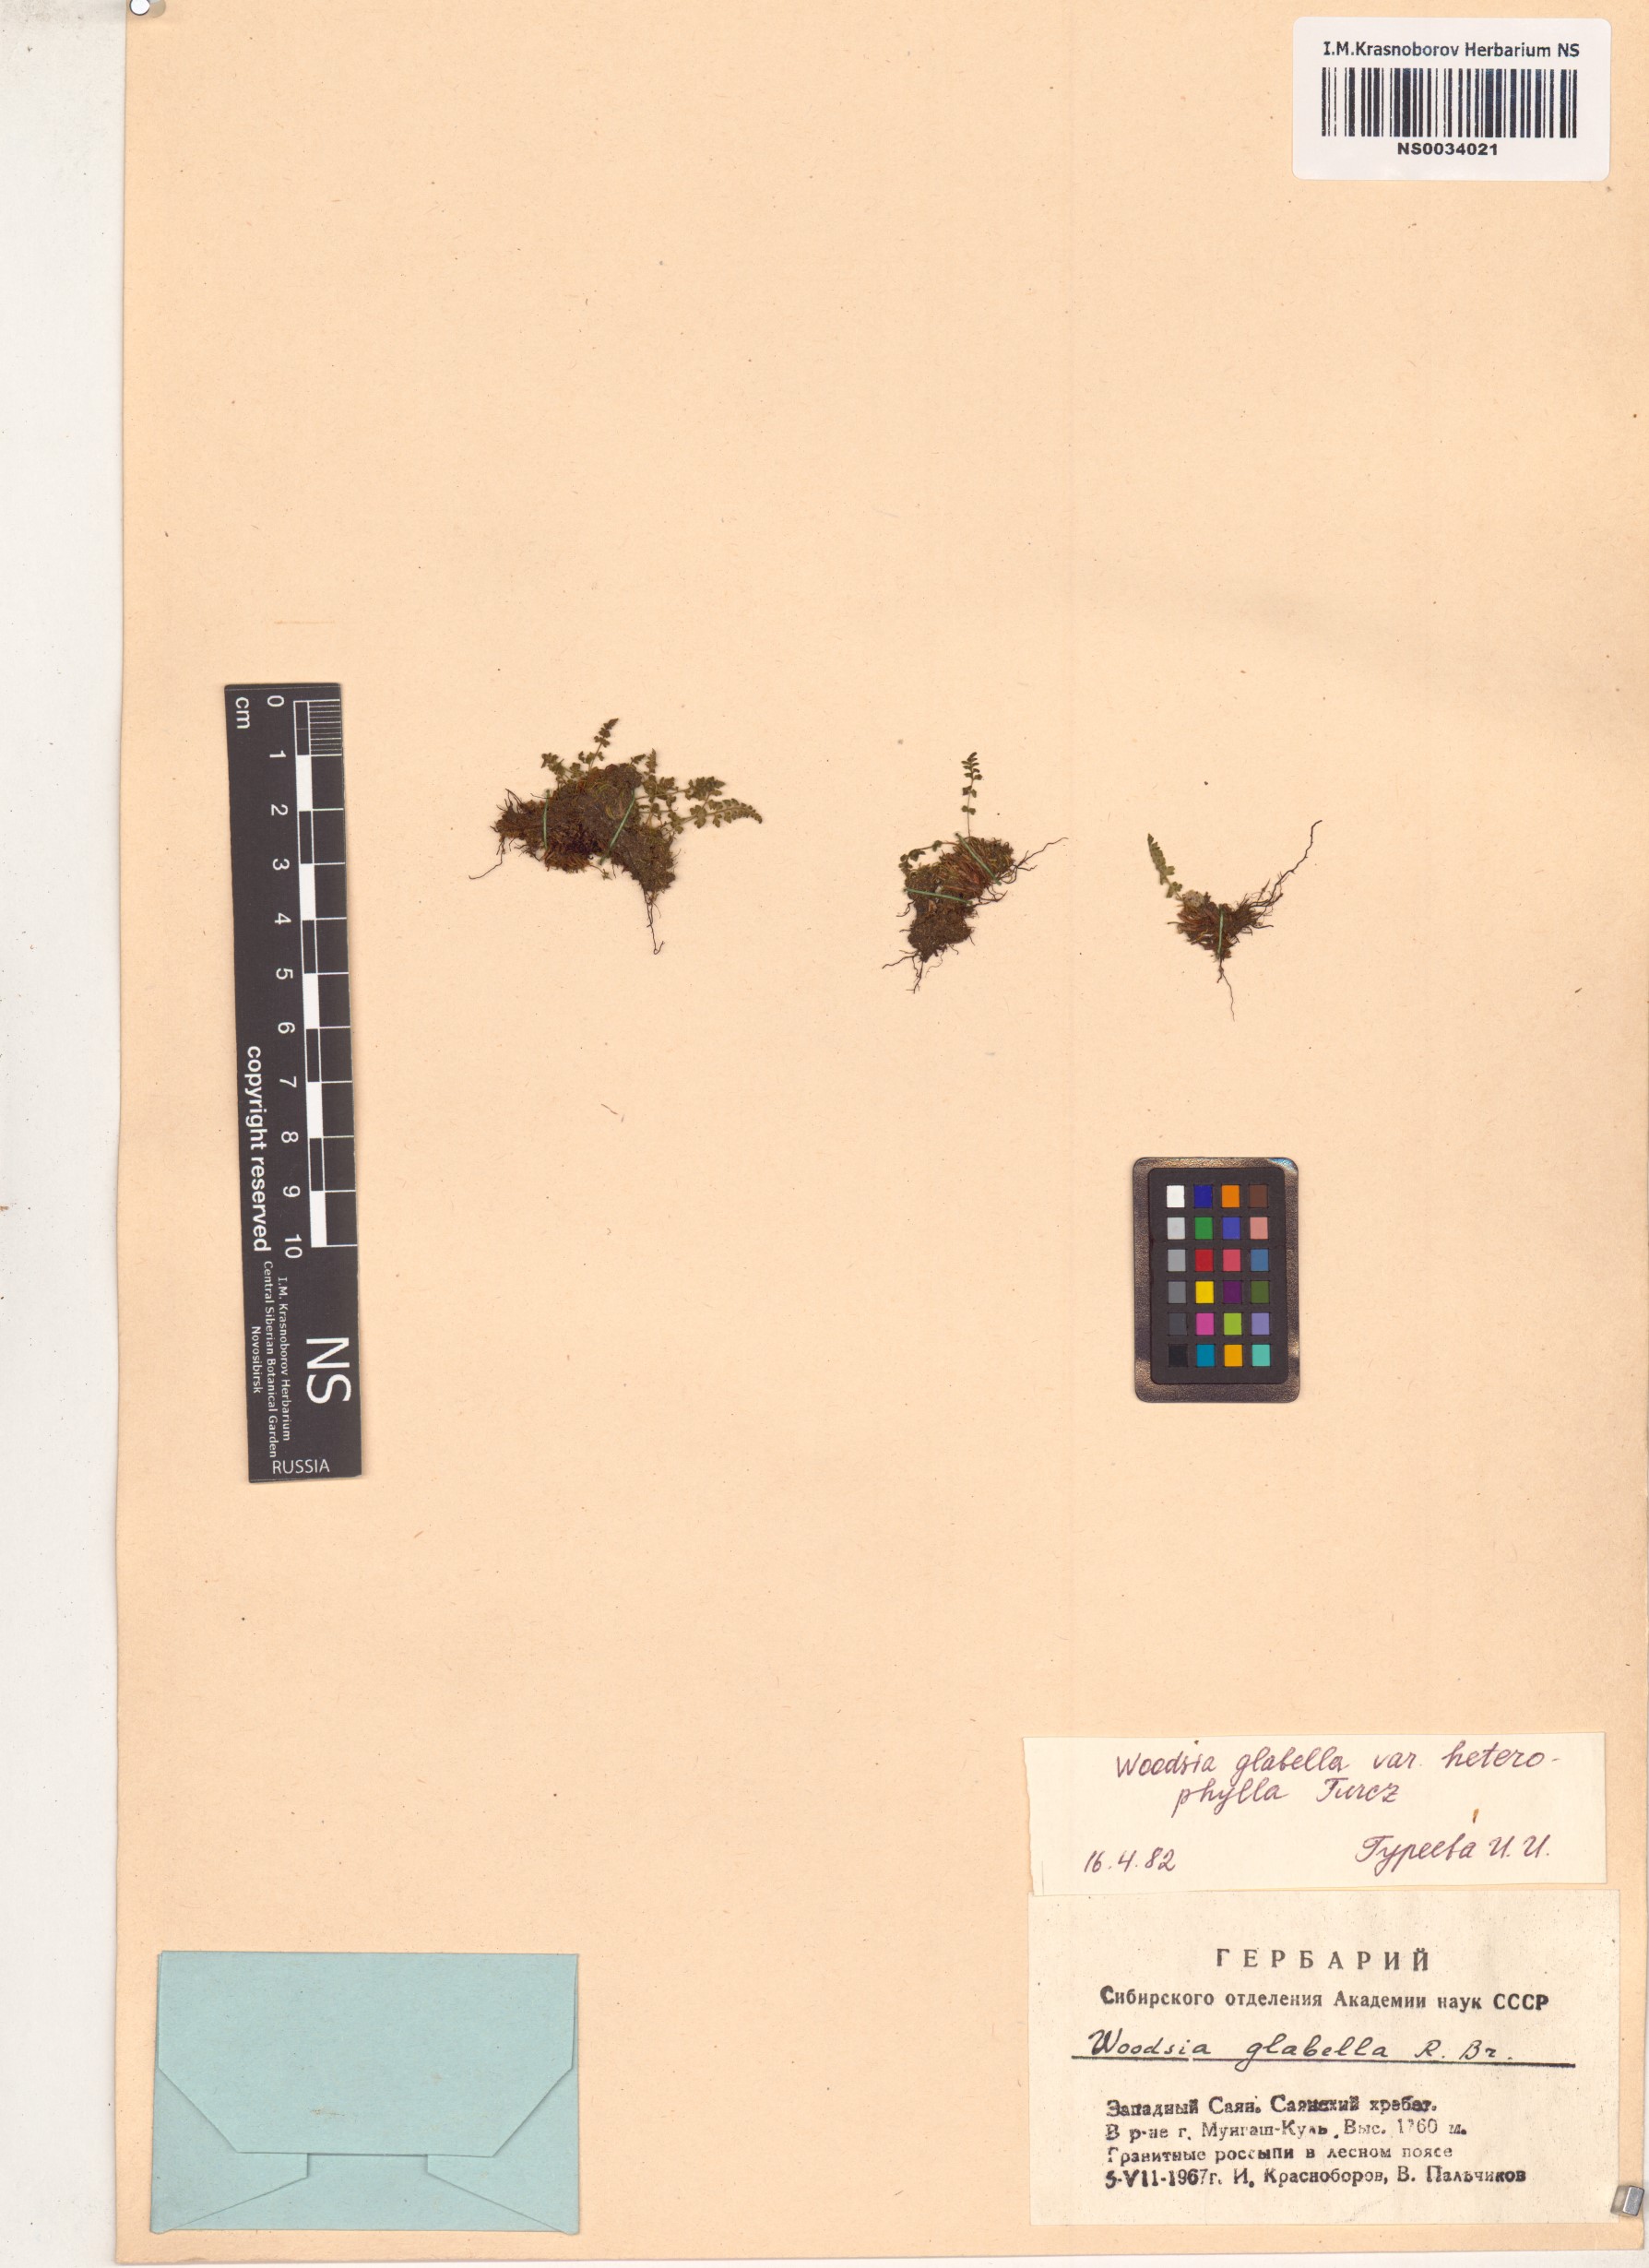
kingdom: Plantae
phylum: Tracheophyta
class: Polypodiopsida
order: Polypodiales
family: Woodsiaceae
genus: Woodsia
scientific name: Woodsia pulchella
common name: Graceful woodsia
